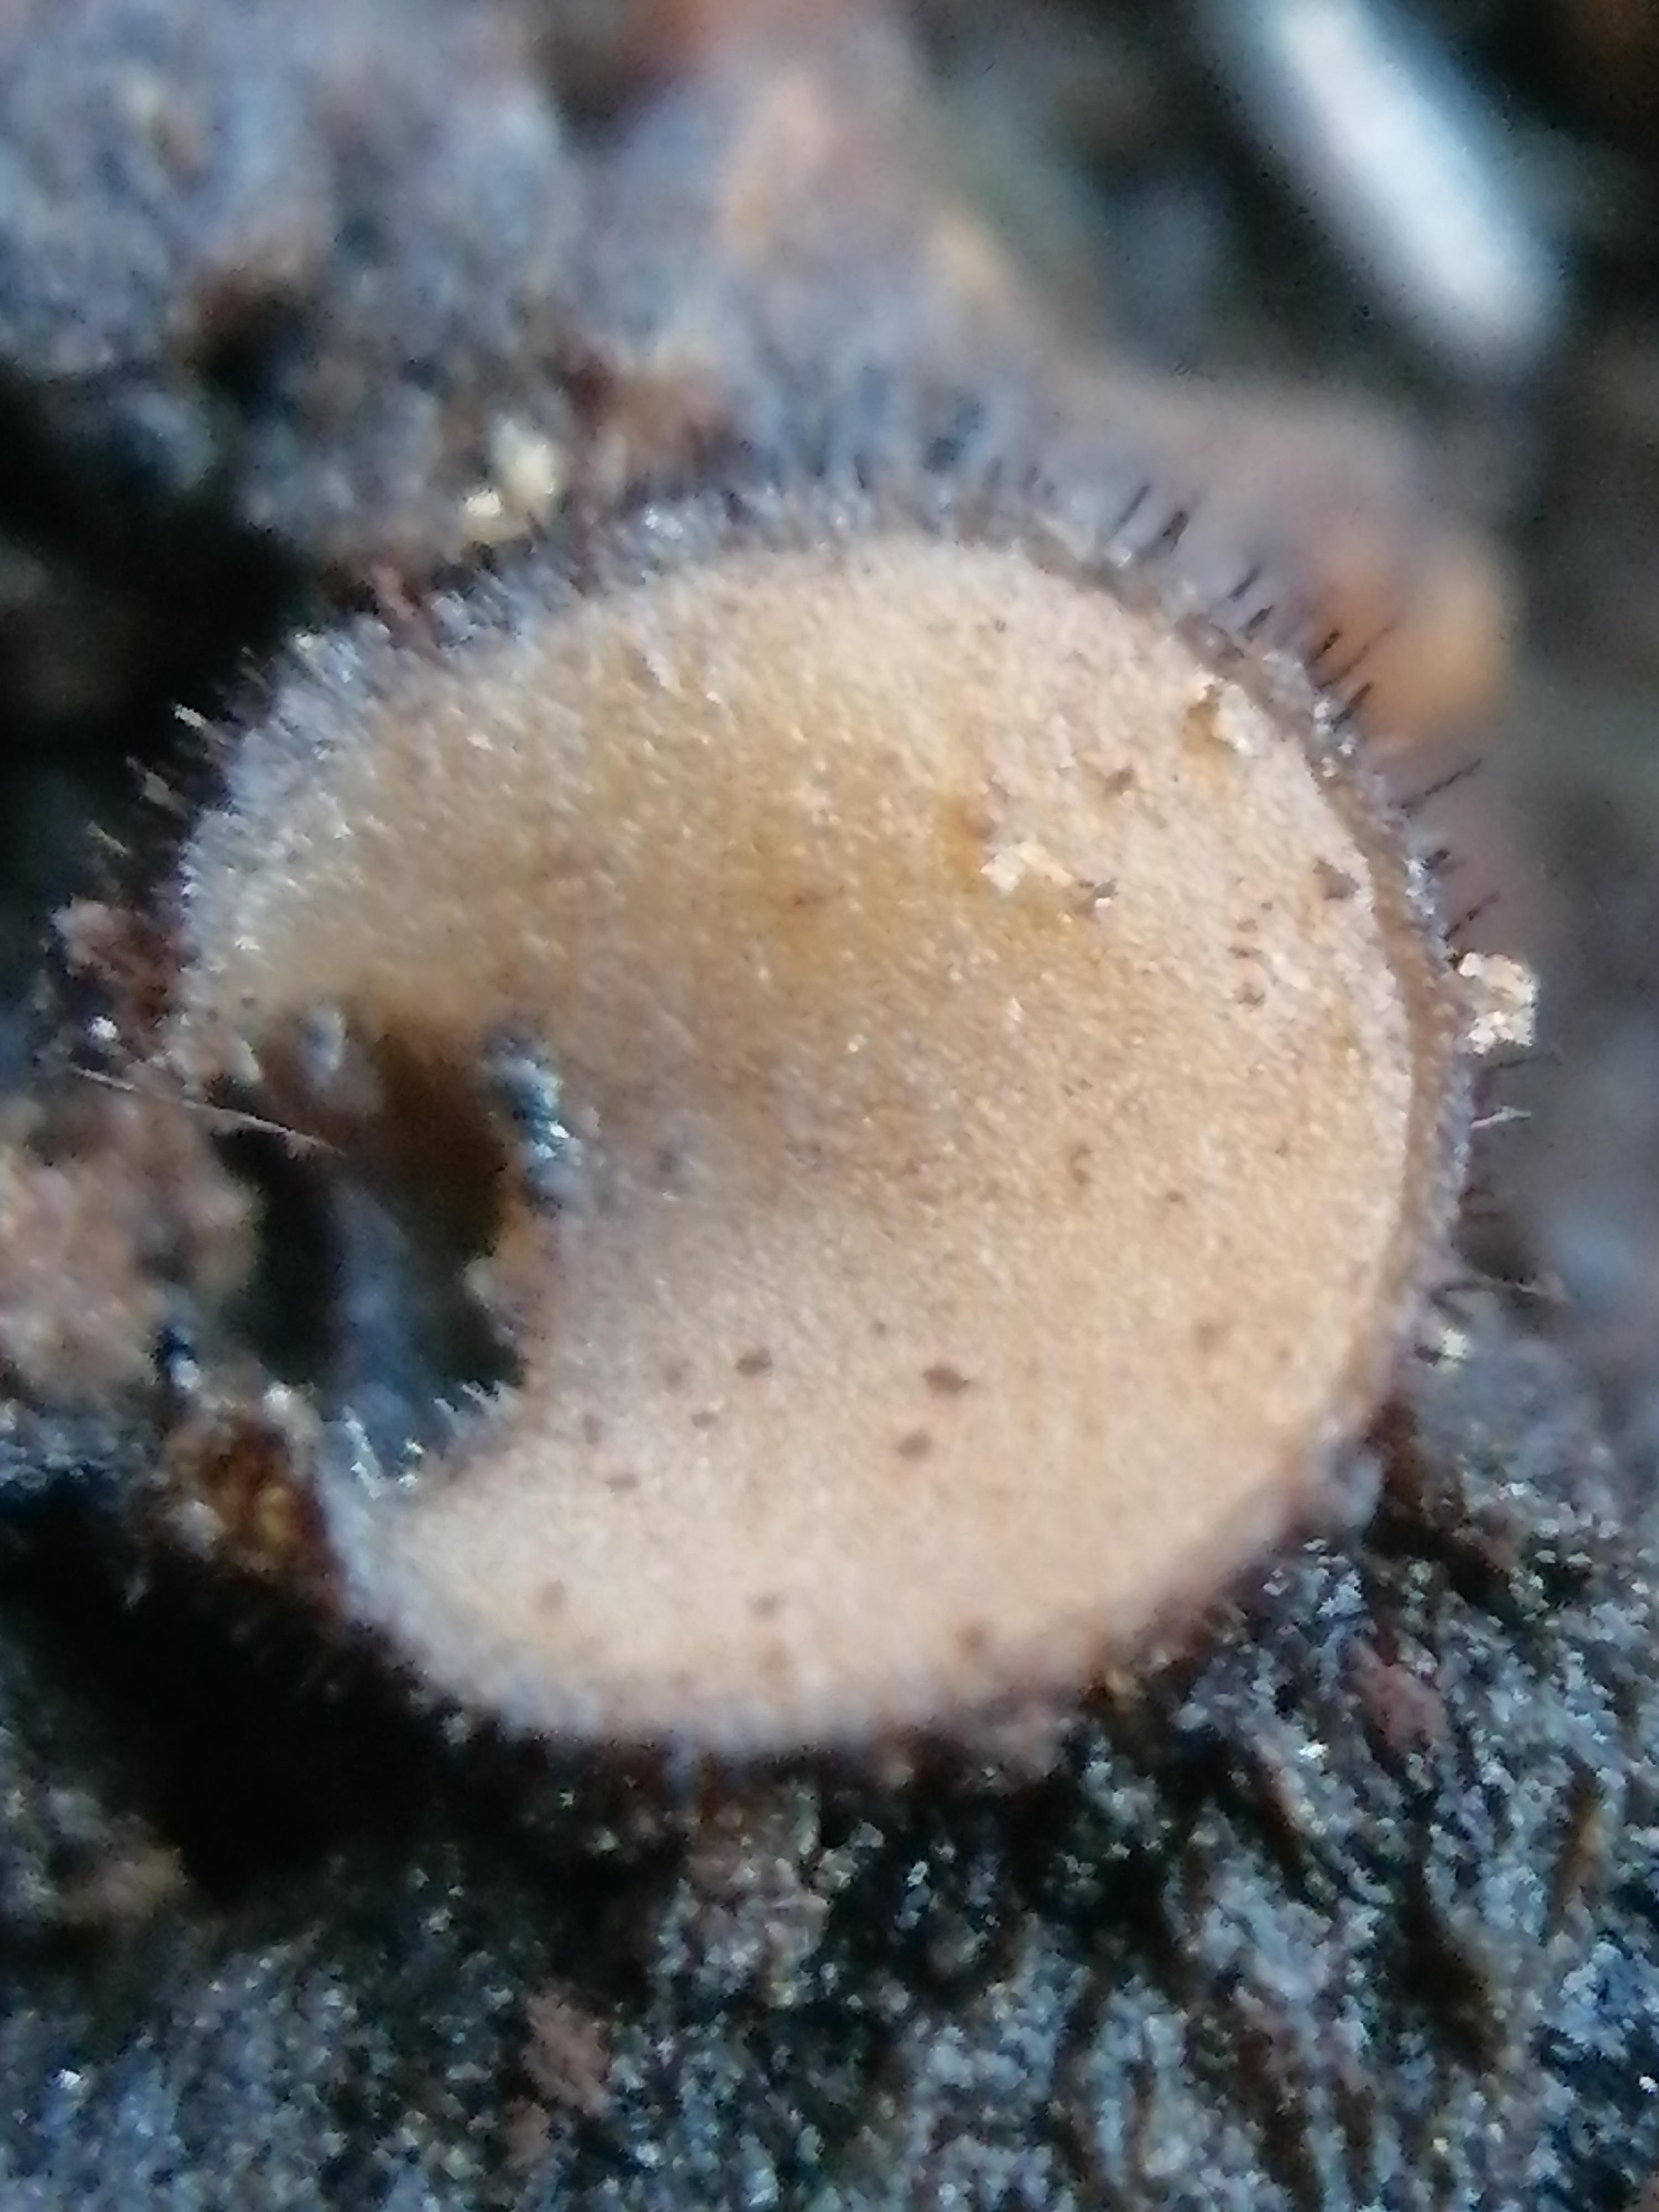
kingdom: Fungi
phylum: Ascomycota
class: Pezizomycetes
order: Pezizales
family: Pyronemataceae
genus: Scutellinia
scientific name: Scutellinia
